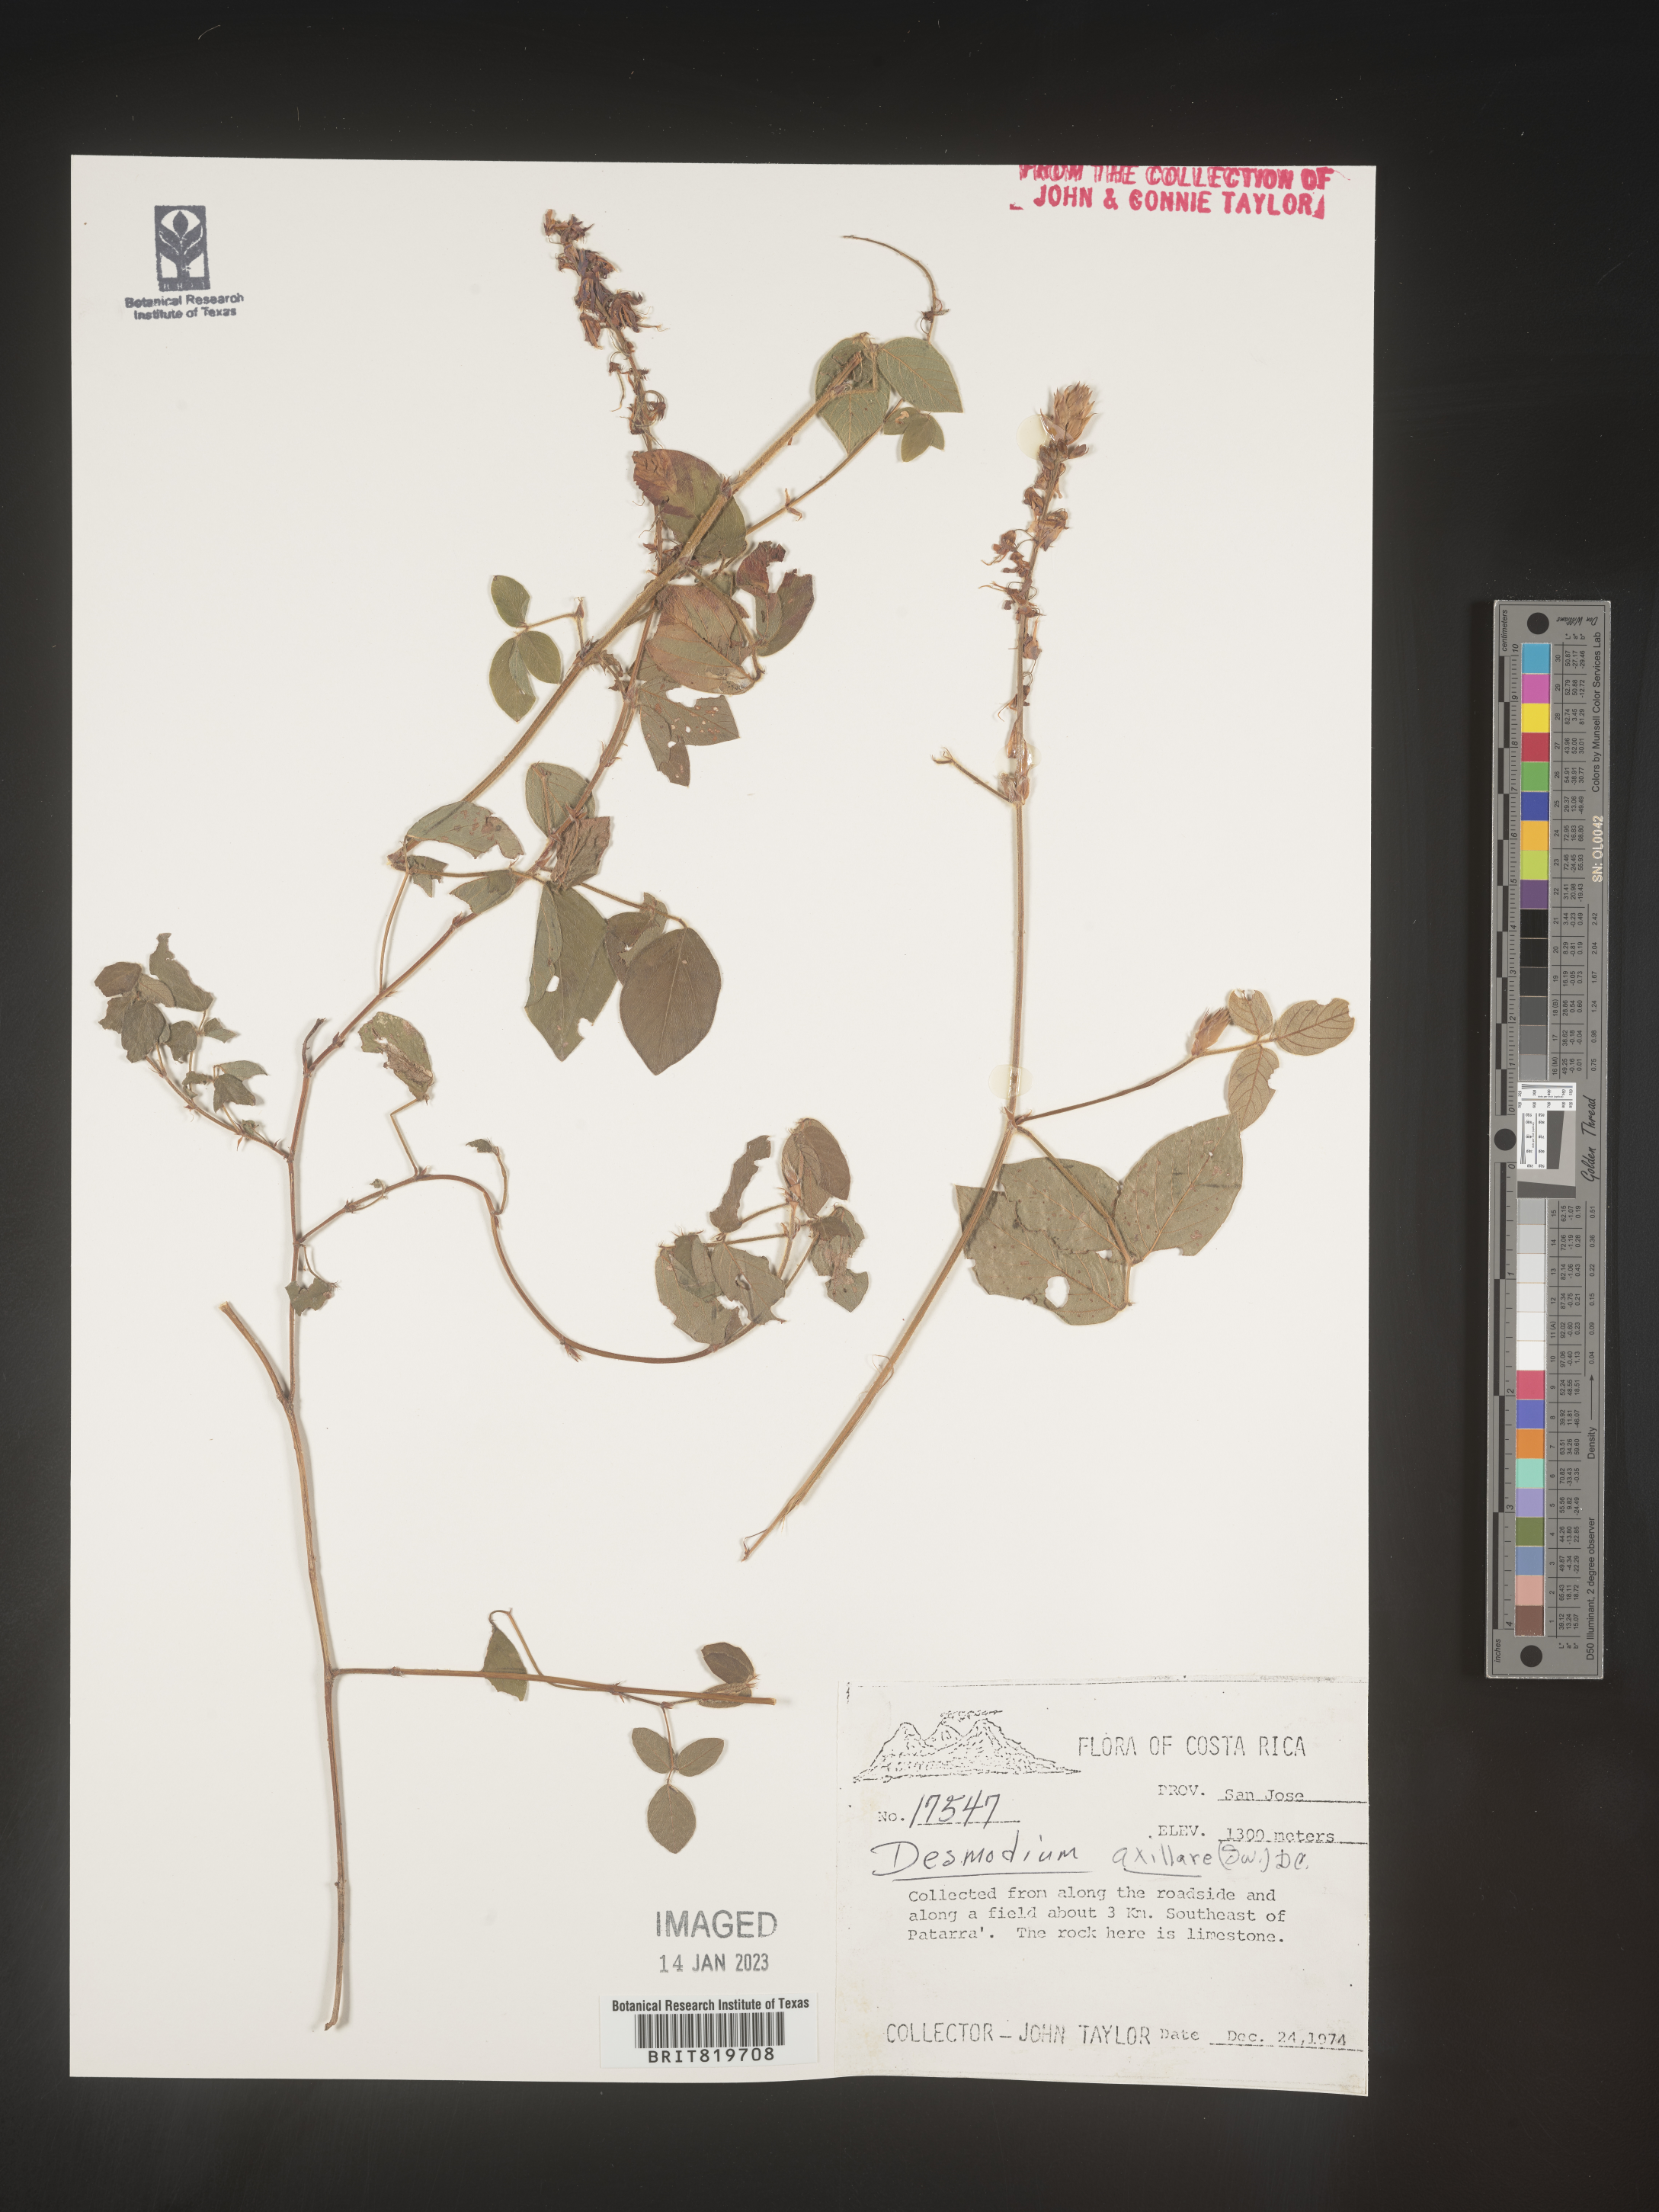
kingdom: Plantae
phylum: Tracheophyta
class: Magnoliopsida
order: Fabales
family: Fabaceae
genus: Desmodium
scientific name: Desmodium
